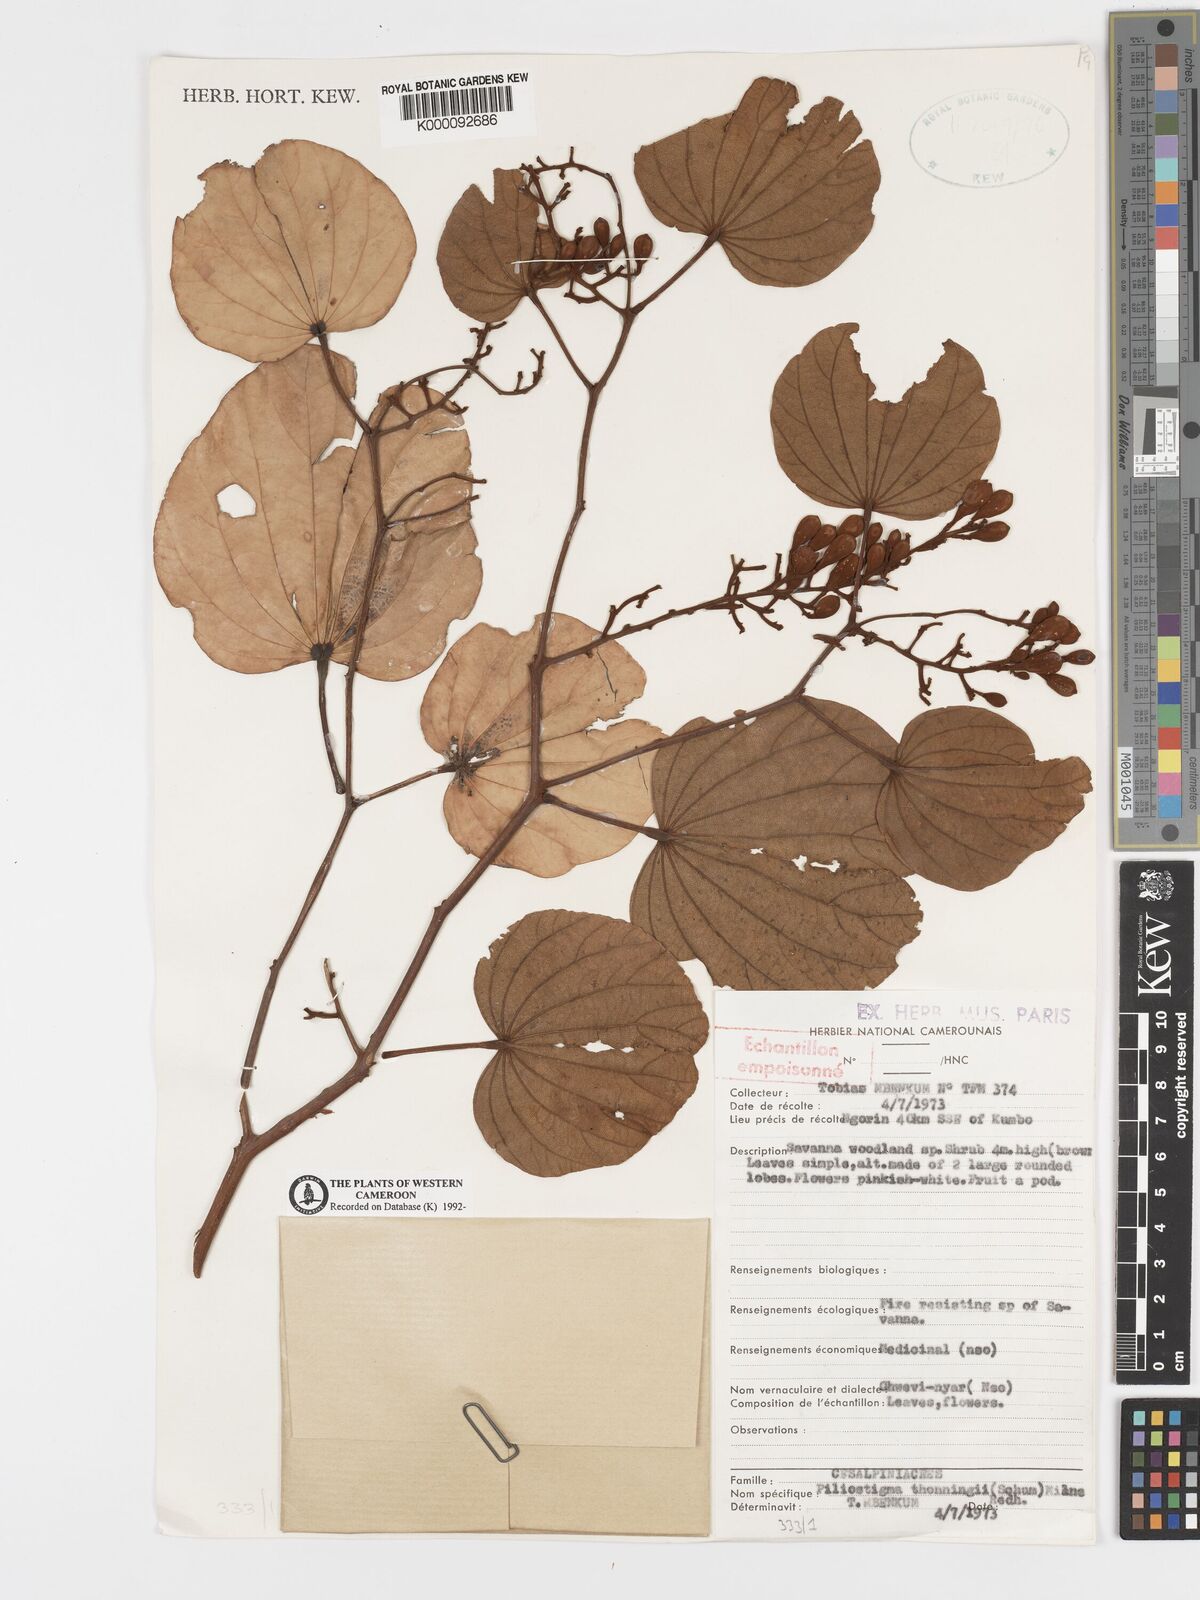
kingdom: Plantae
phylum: Tracheophyta
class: Magnoliopsida
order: Fabales
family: Fabaceae
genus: Piliostigma
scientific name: Piliostigma thonningii
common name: Kao
